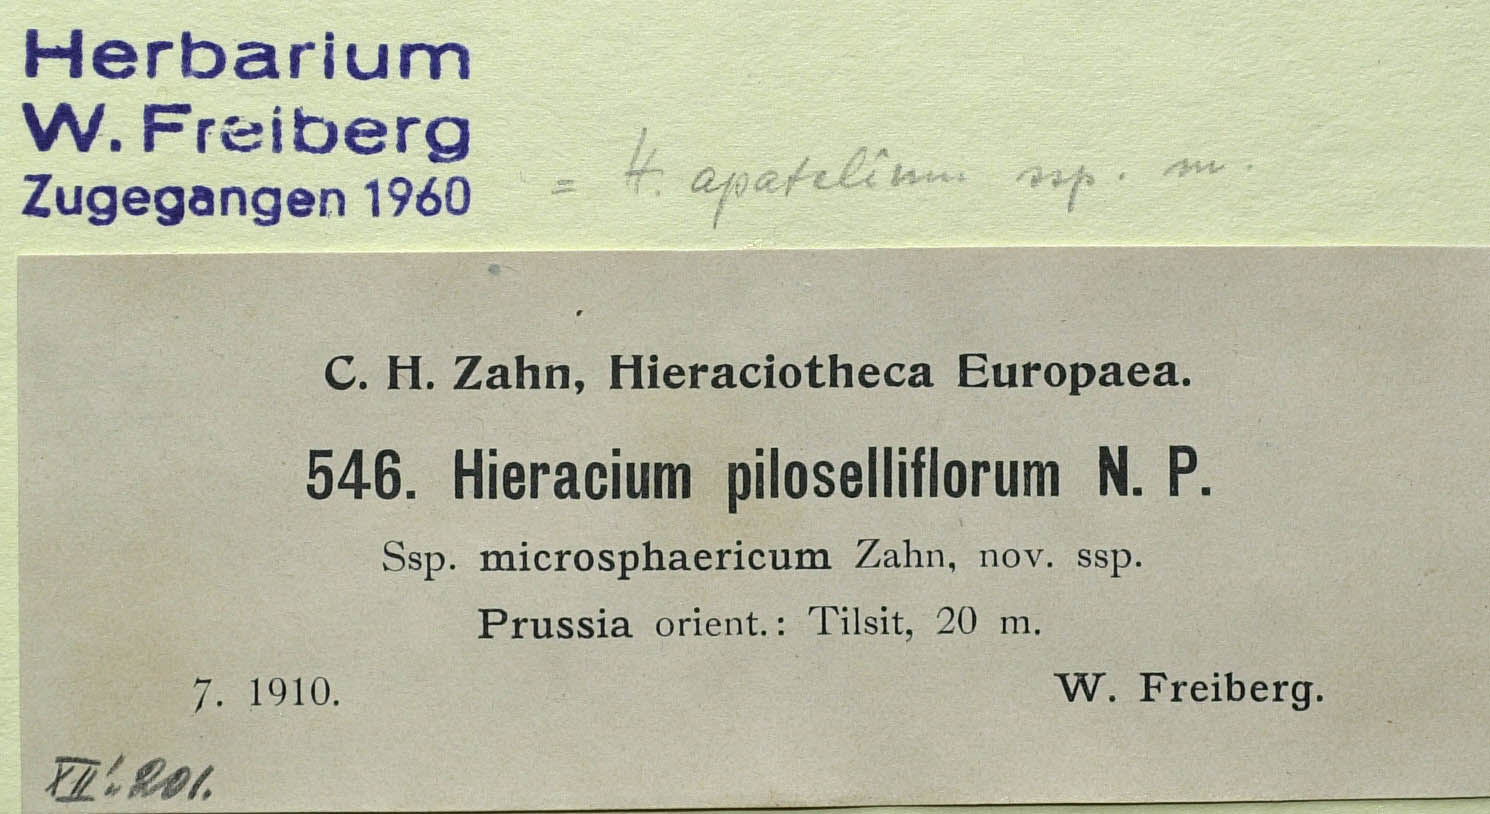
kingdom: Plantae
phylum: Tracheophyta
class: Magnoliopsida
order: Asterales
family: Asteraceae
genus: Pilosella
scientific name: Pilosella piloselliflora
